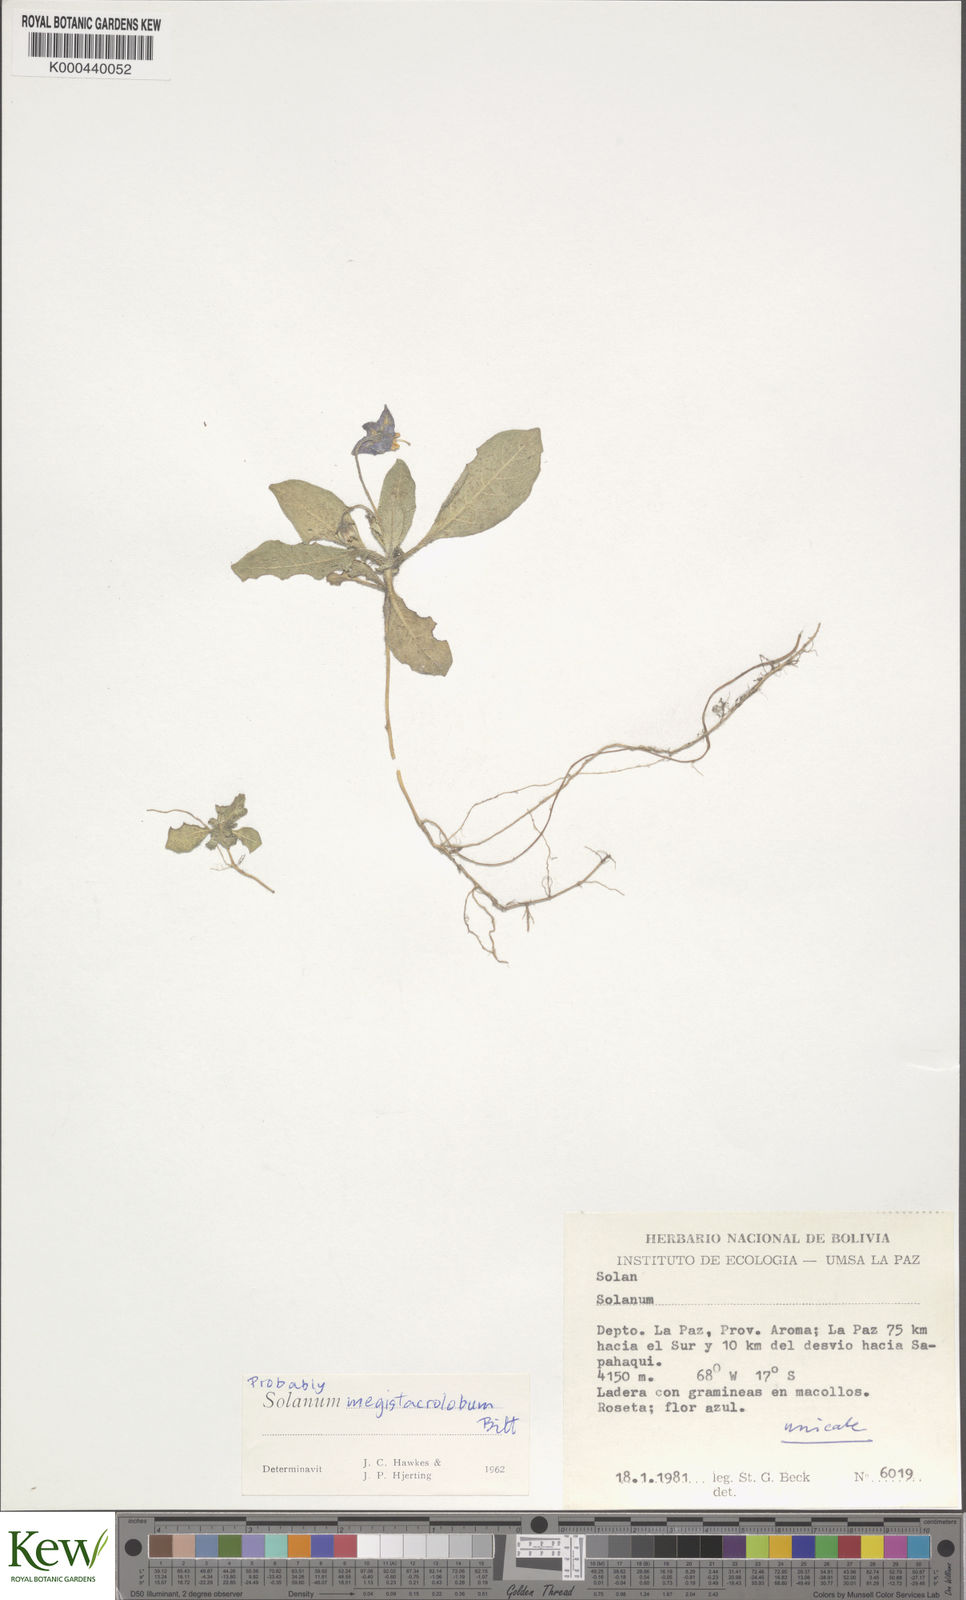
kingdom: Plantae
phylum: Tracheophyta
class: Magnoliopsida
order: Solanales
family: Solanaceae
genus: Solanum
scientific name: Solanum boliviense
